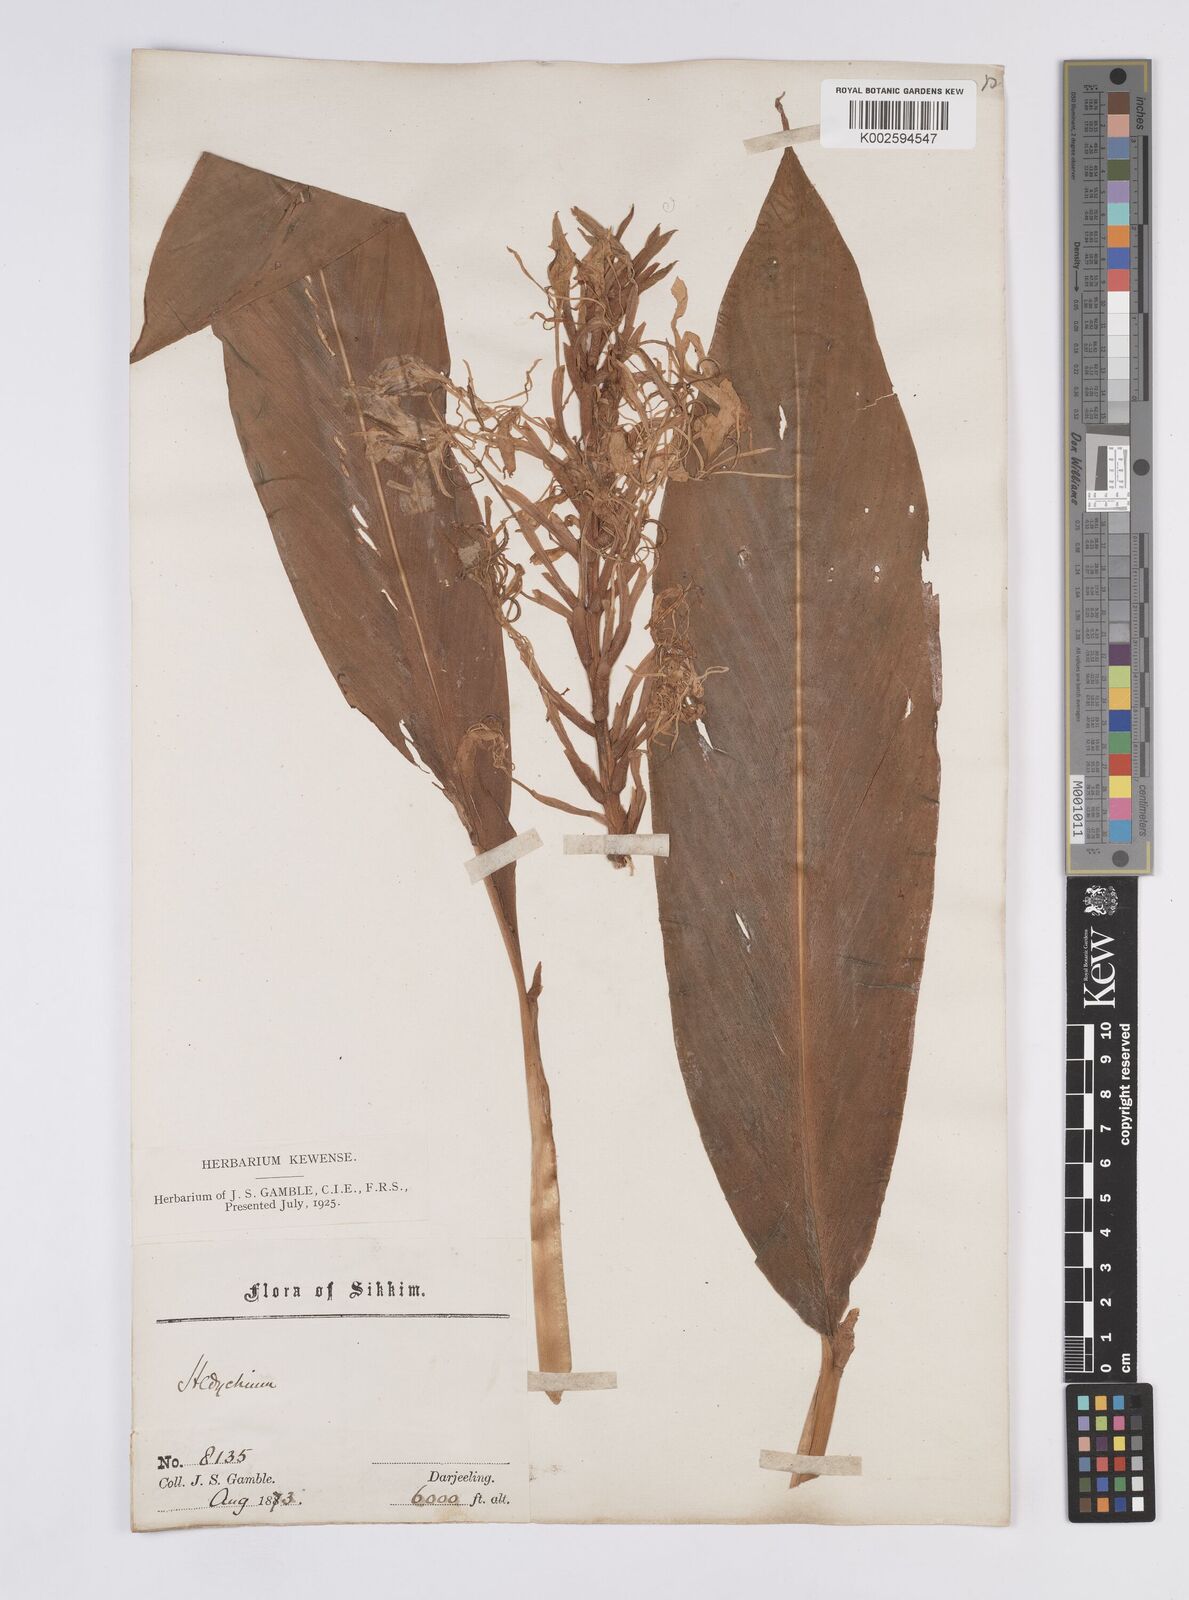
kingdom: Plantae
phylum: Tracheophyta
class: Liliopsida
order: Zingiberales
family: Zingiberaceae
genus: Hedychium
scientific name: Hedychium glaucum
